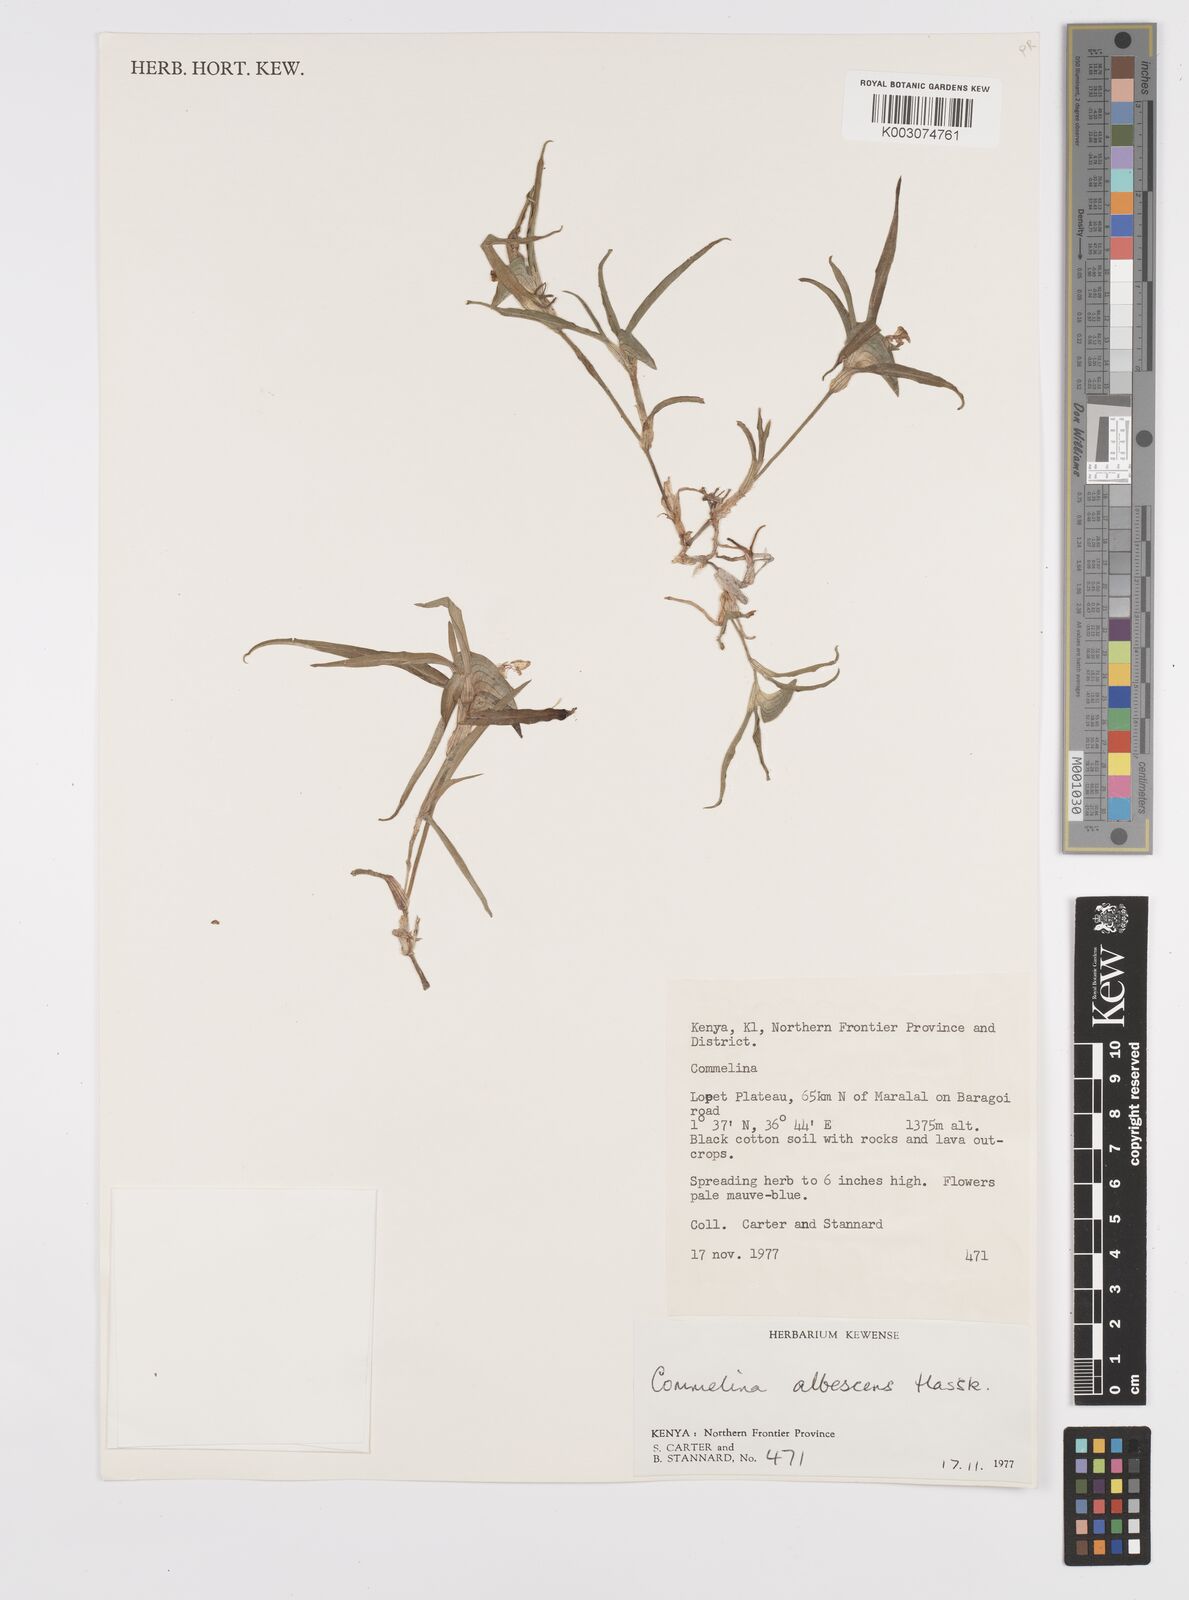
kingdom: Plantae
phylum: Tracheophyta
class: Liliopsida
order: Commelinales
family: Commelinaceae
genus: Commelina
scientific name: Commelina albescens
